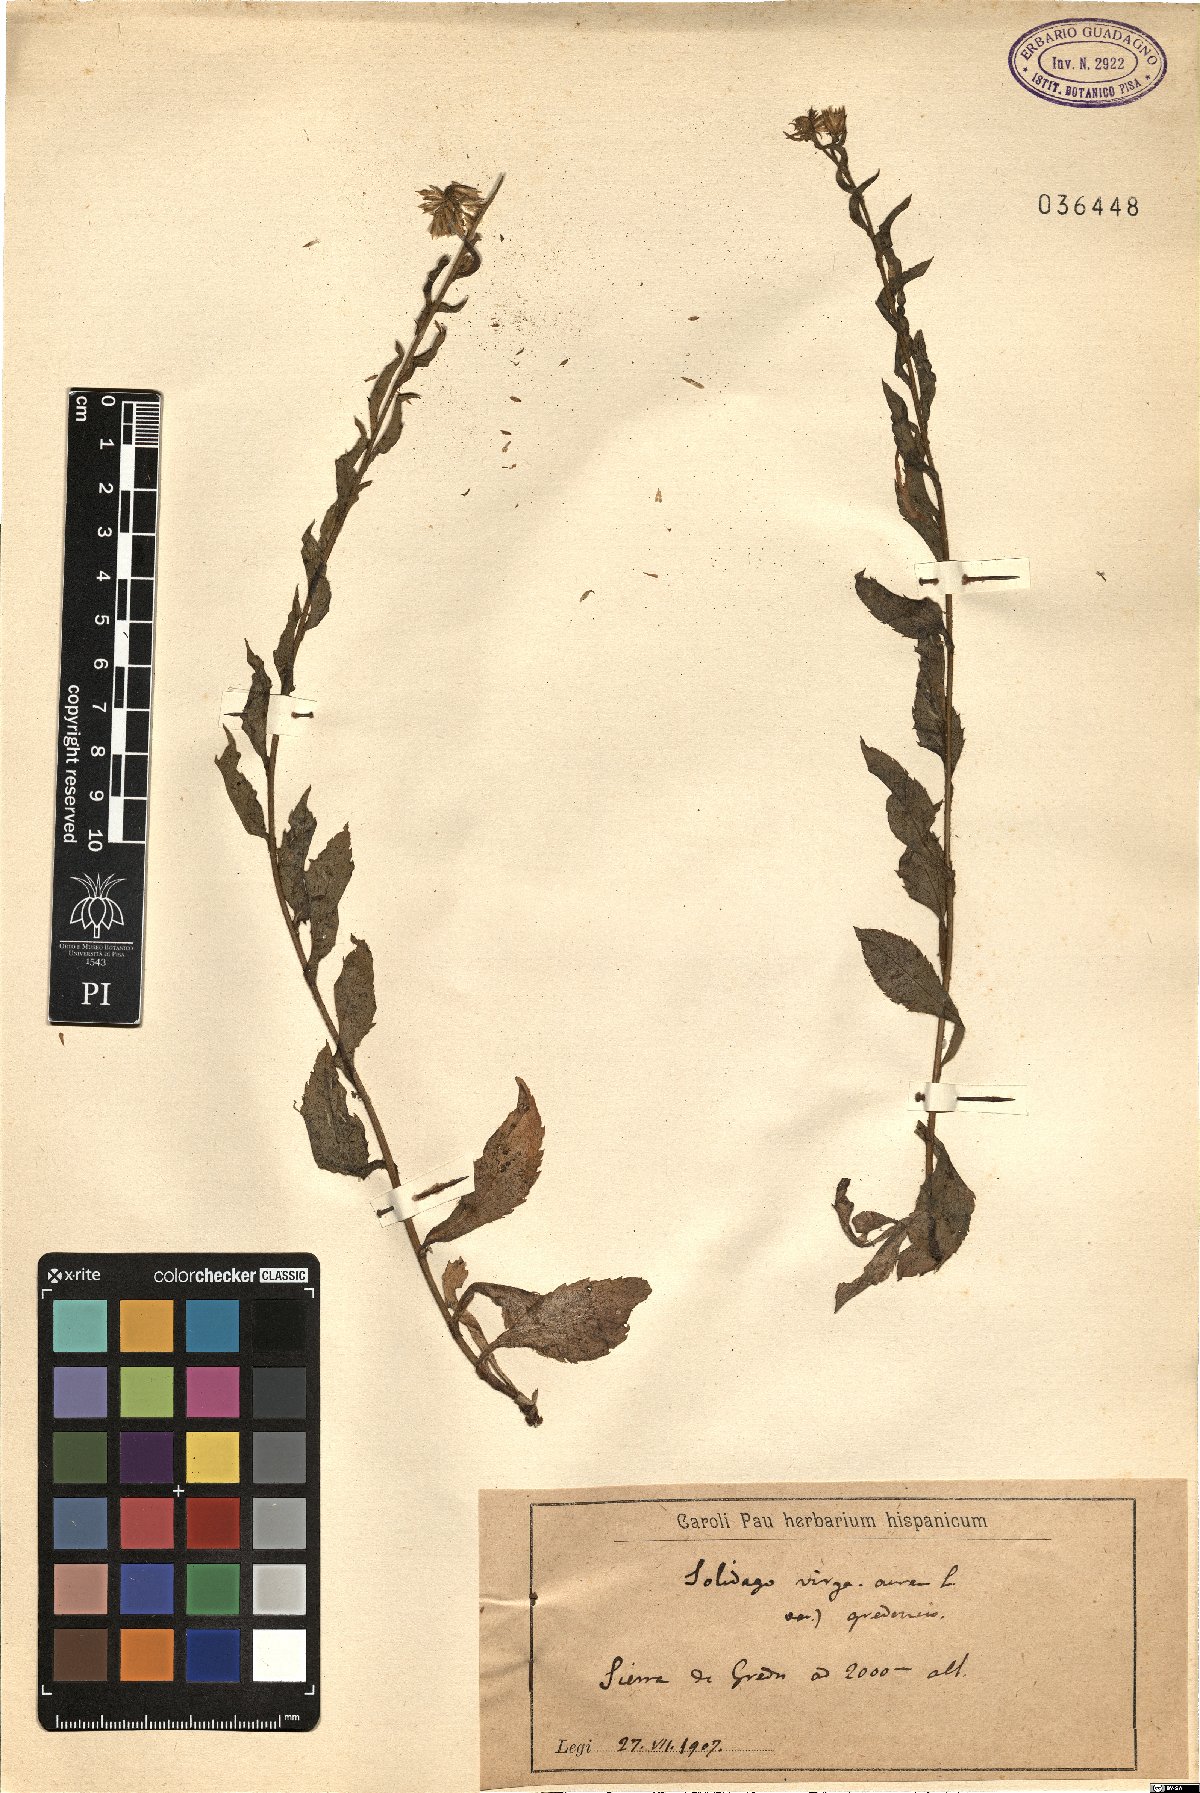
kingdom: Plantae
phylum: Tracheophyta
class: Magnoliopsida
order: Asterales
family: Asteraceae
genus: Solidago
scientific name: Solidago virgaurea
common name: Goldenrod
